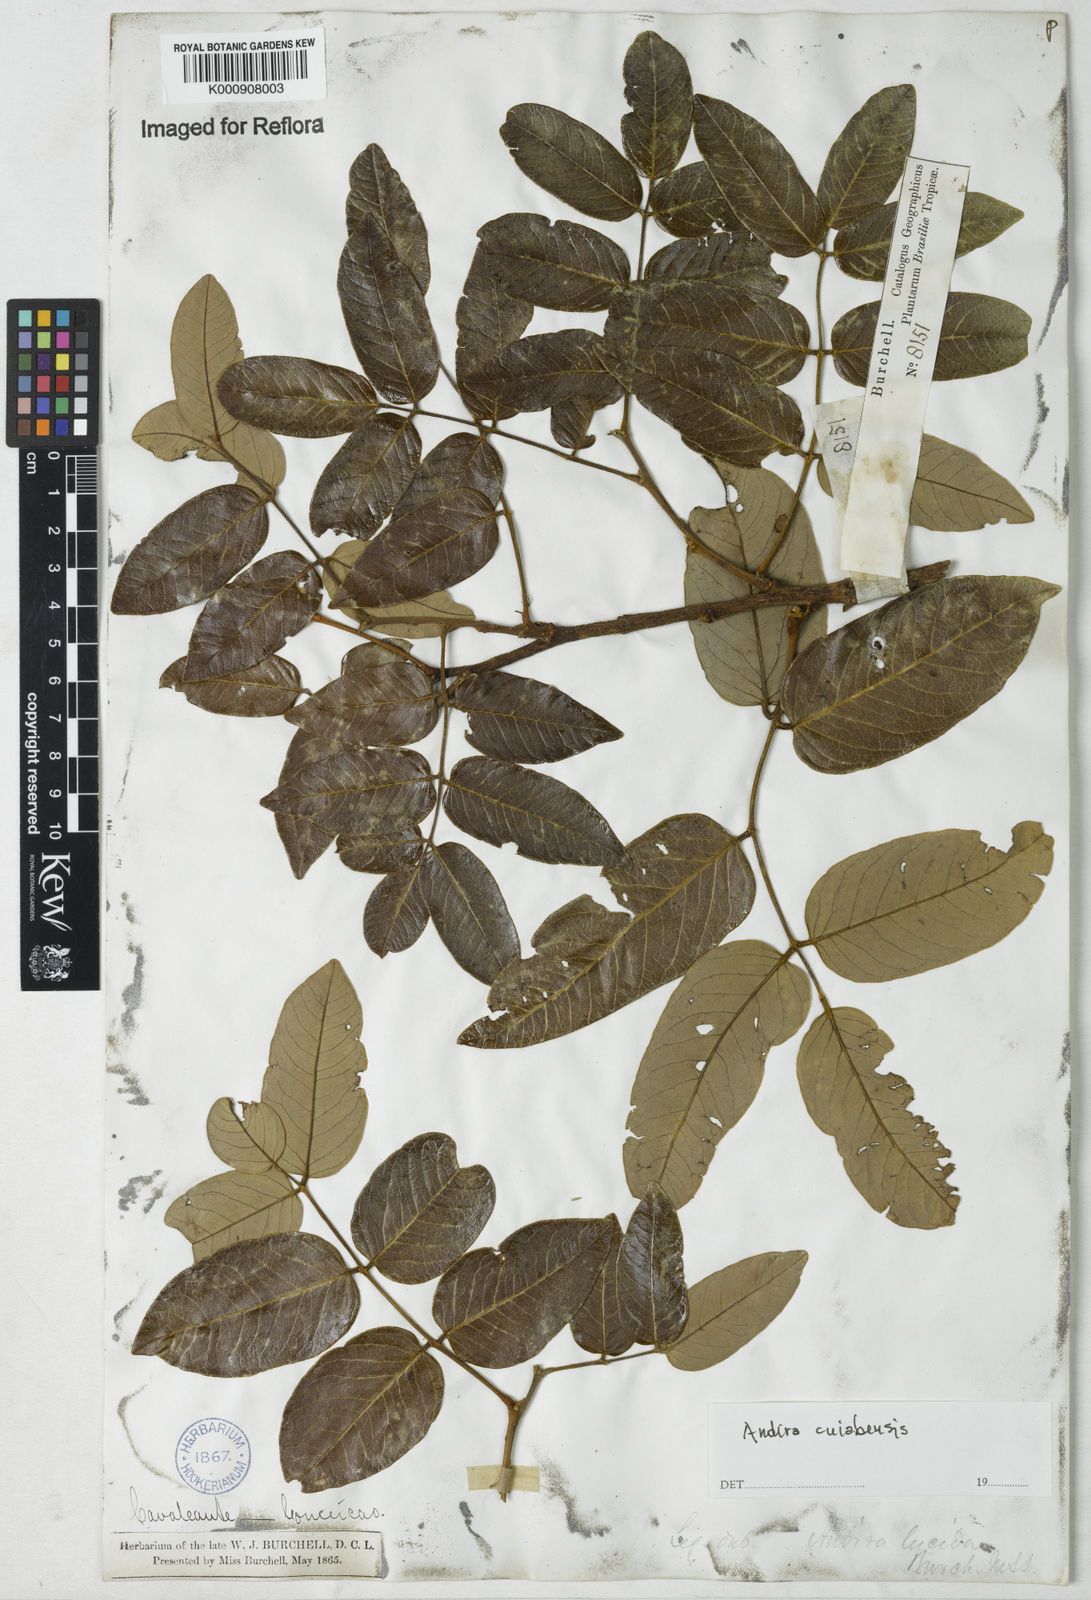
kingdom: Plantae
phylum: Tracheophyta
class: Magnoliopsida
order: Fabales
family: Fabaceae
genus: Andira
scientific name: Andira cujabensis
